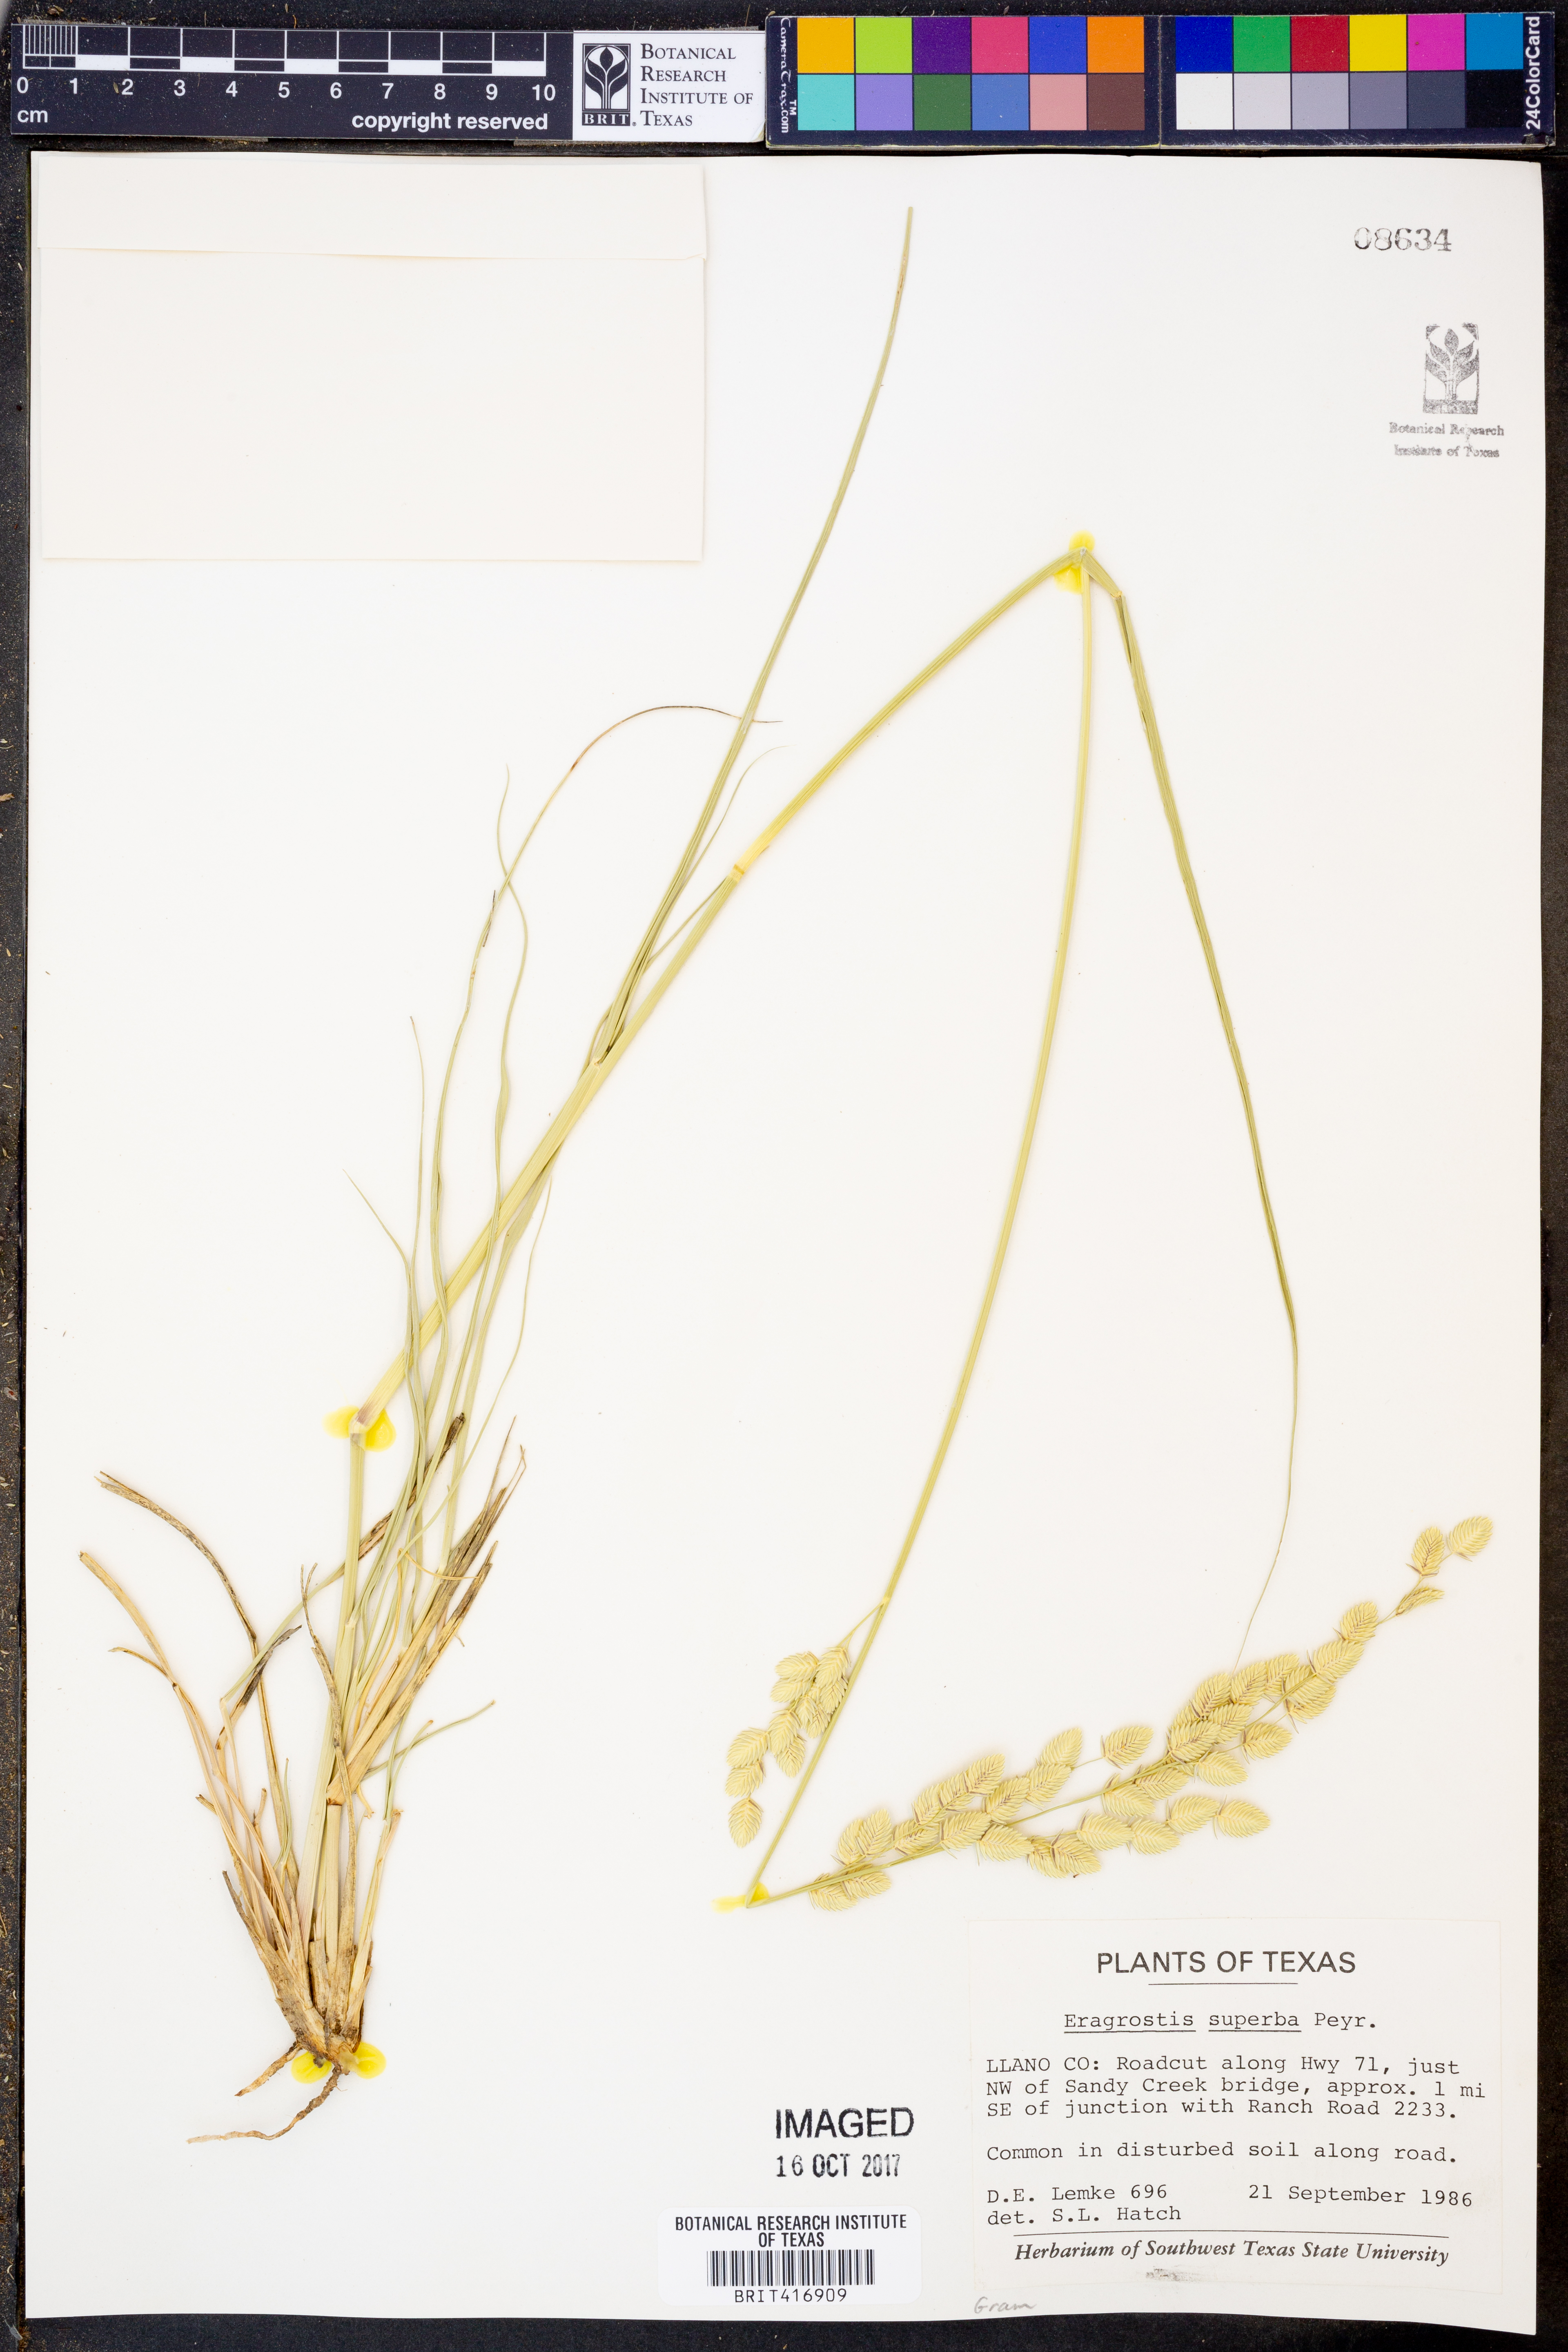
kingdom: Plantae
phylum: Tracheophyta
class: Liliopsida
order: Poales
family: Poaceae
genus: Eragrostis
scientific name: Eragrostis superba
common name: Wilman lovegrass
